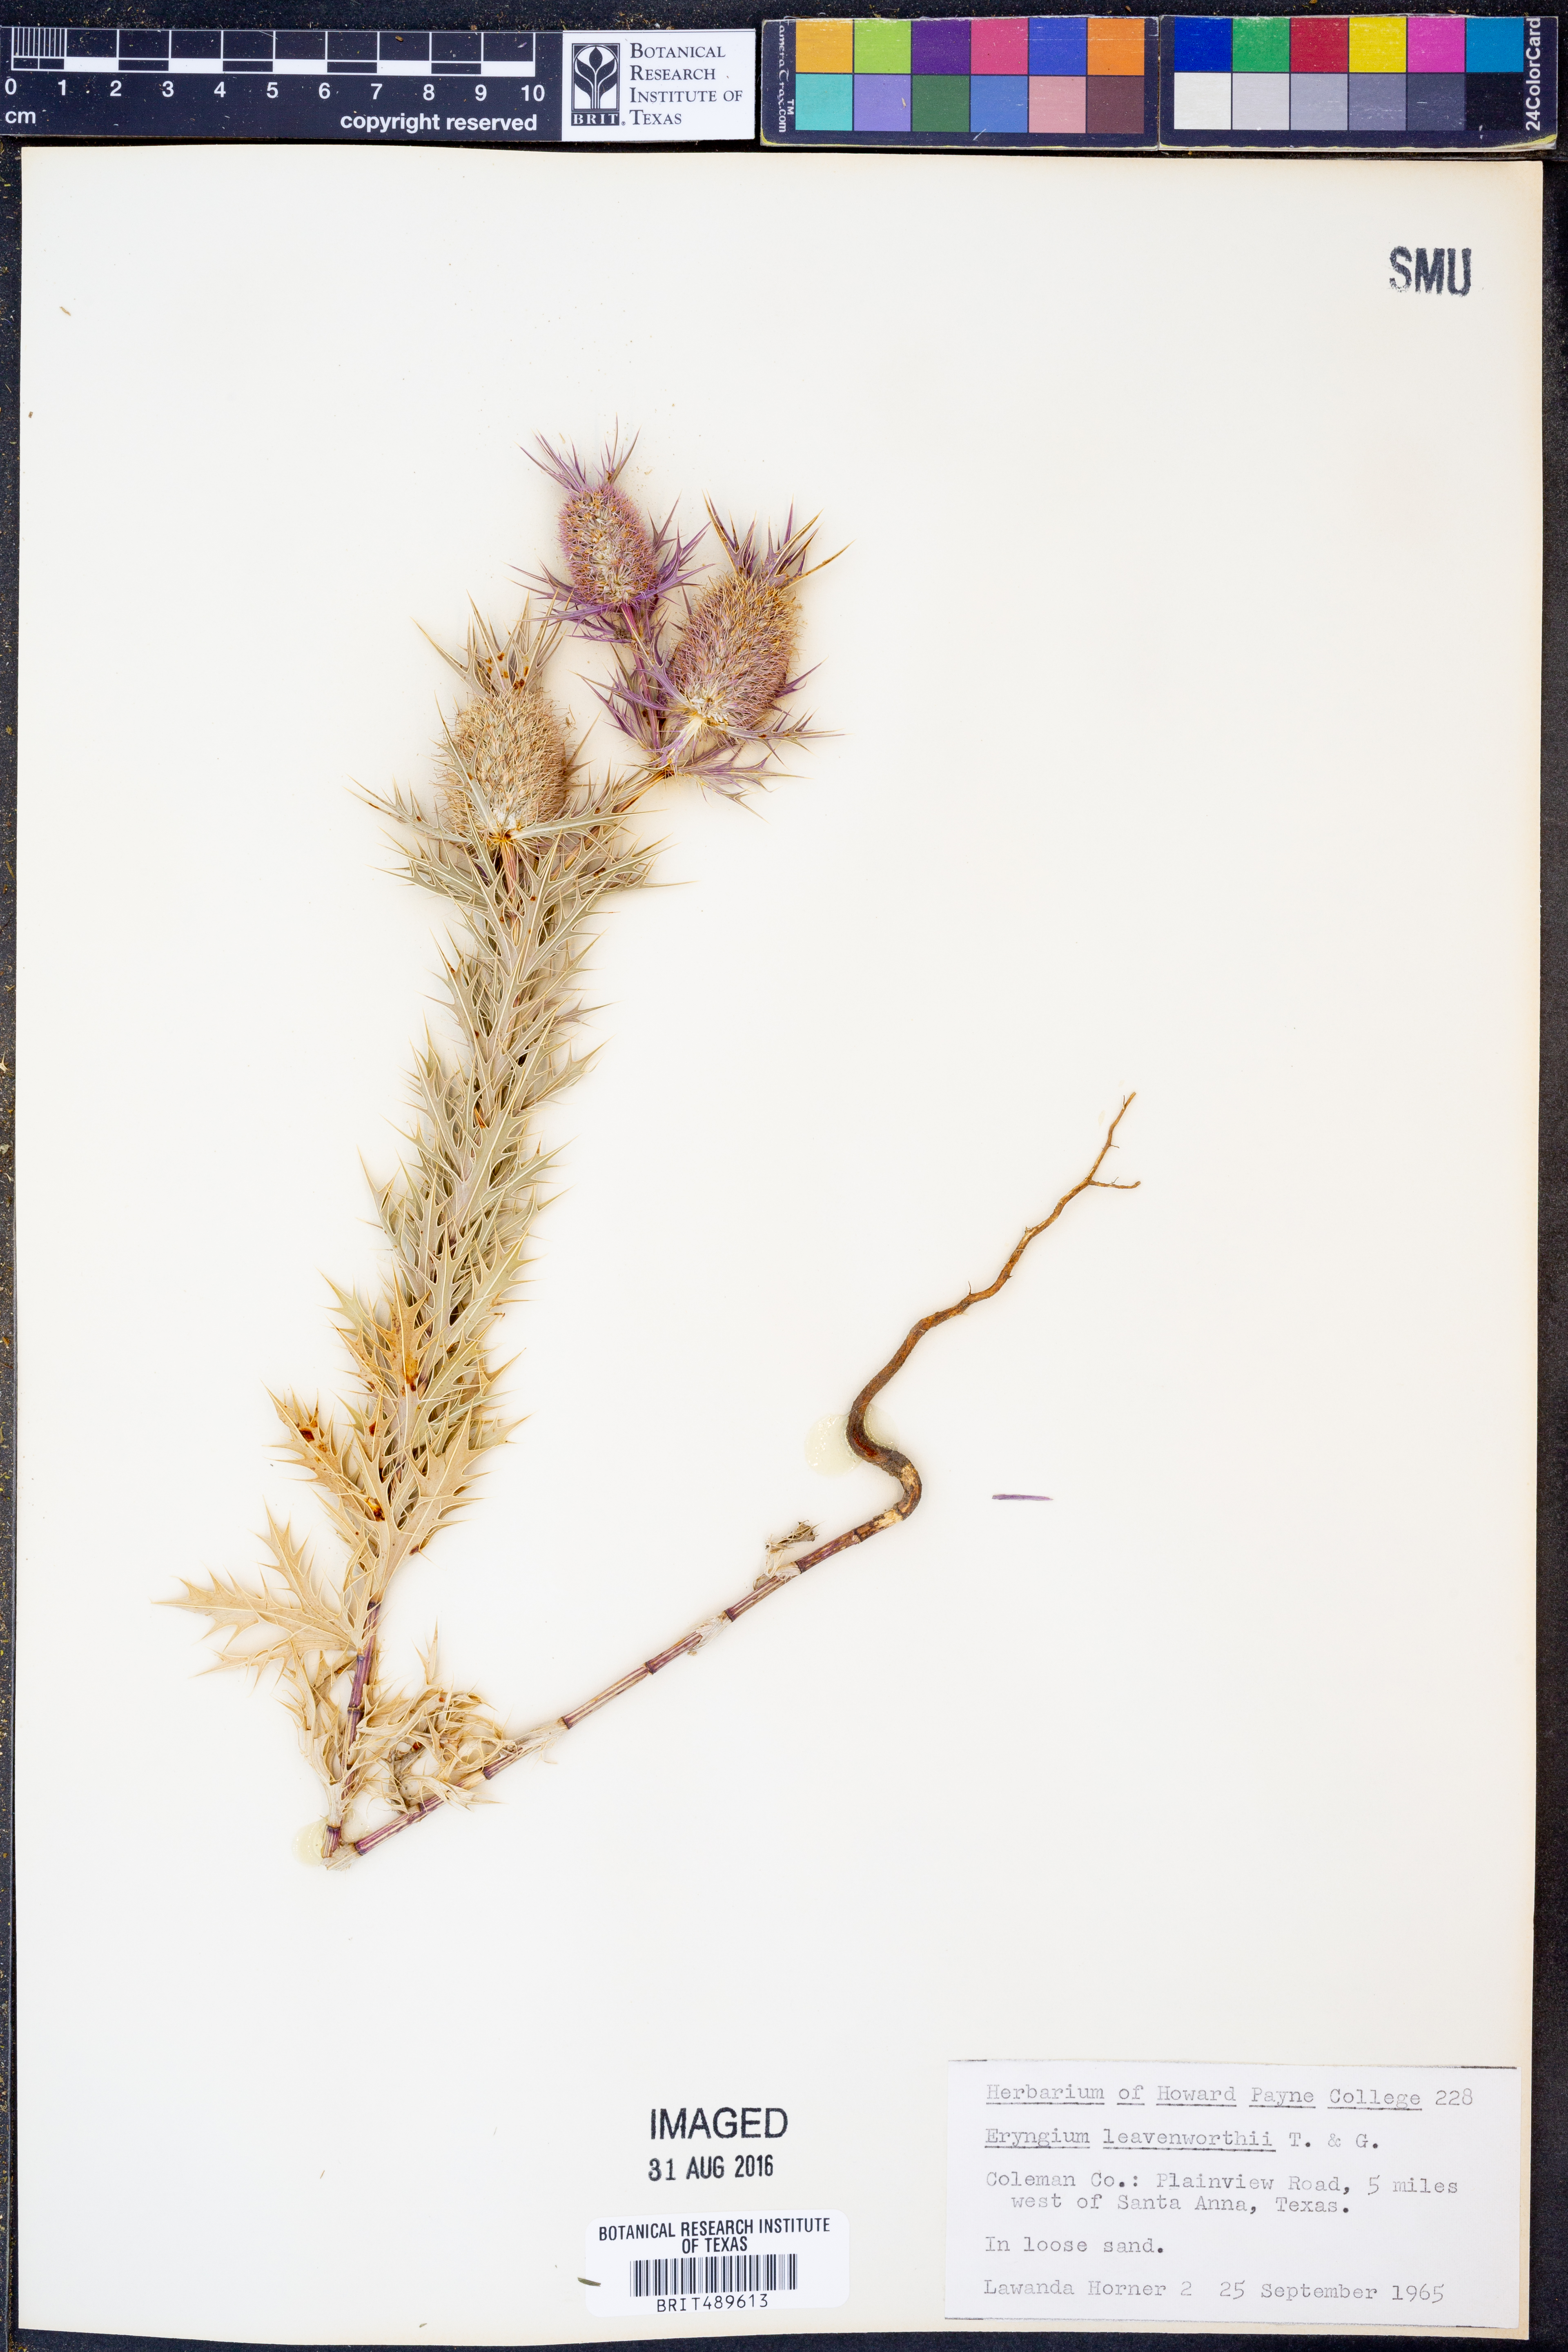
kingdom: Plantae
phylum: Tracheophyta
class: Magnoliopsida
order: Apiales
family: Apiaceae
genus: Eryngium
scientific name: Eryngium leavenworthii
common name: Leavenworth's eryngo
